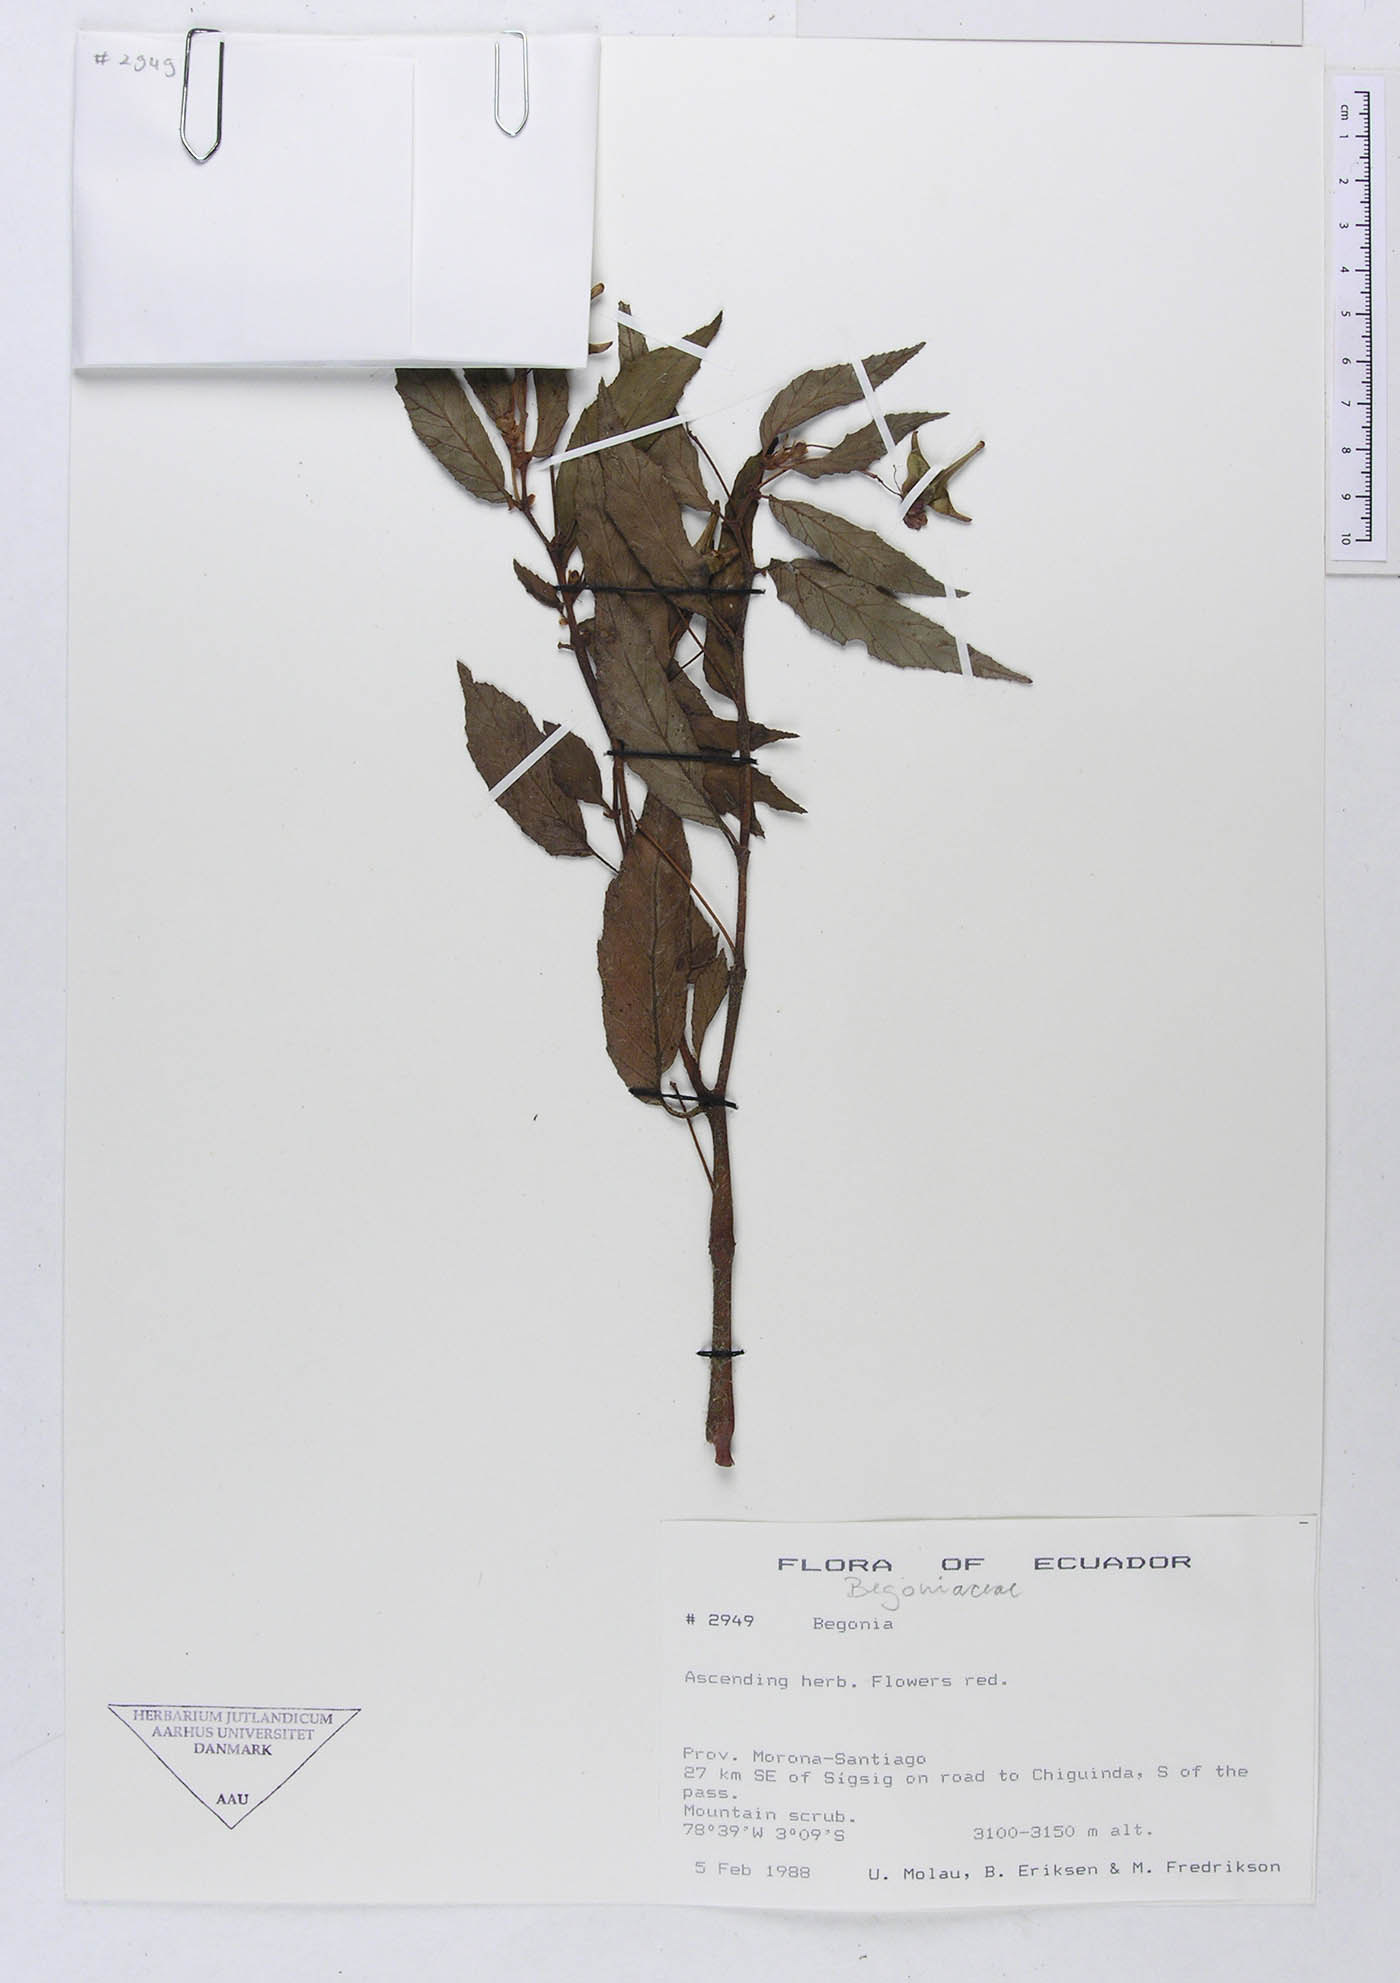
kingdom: Plantae
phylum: Tracheophyta
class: Magnoliopsida
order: Cucurbitales
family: Begoniaceae
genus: Begonia
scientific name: Begonia
